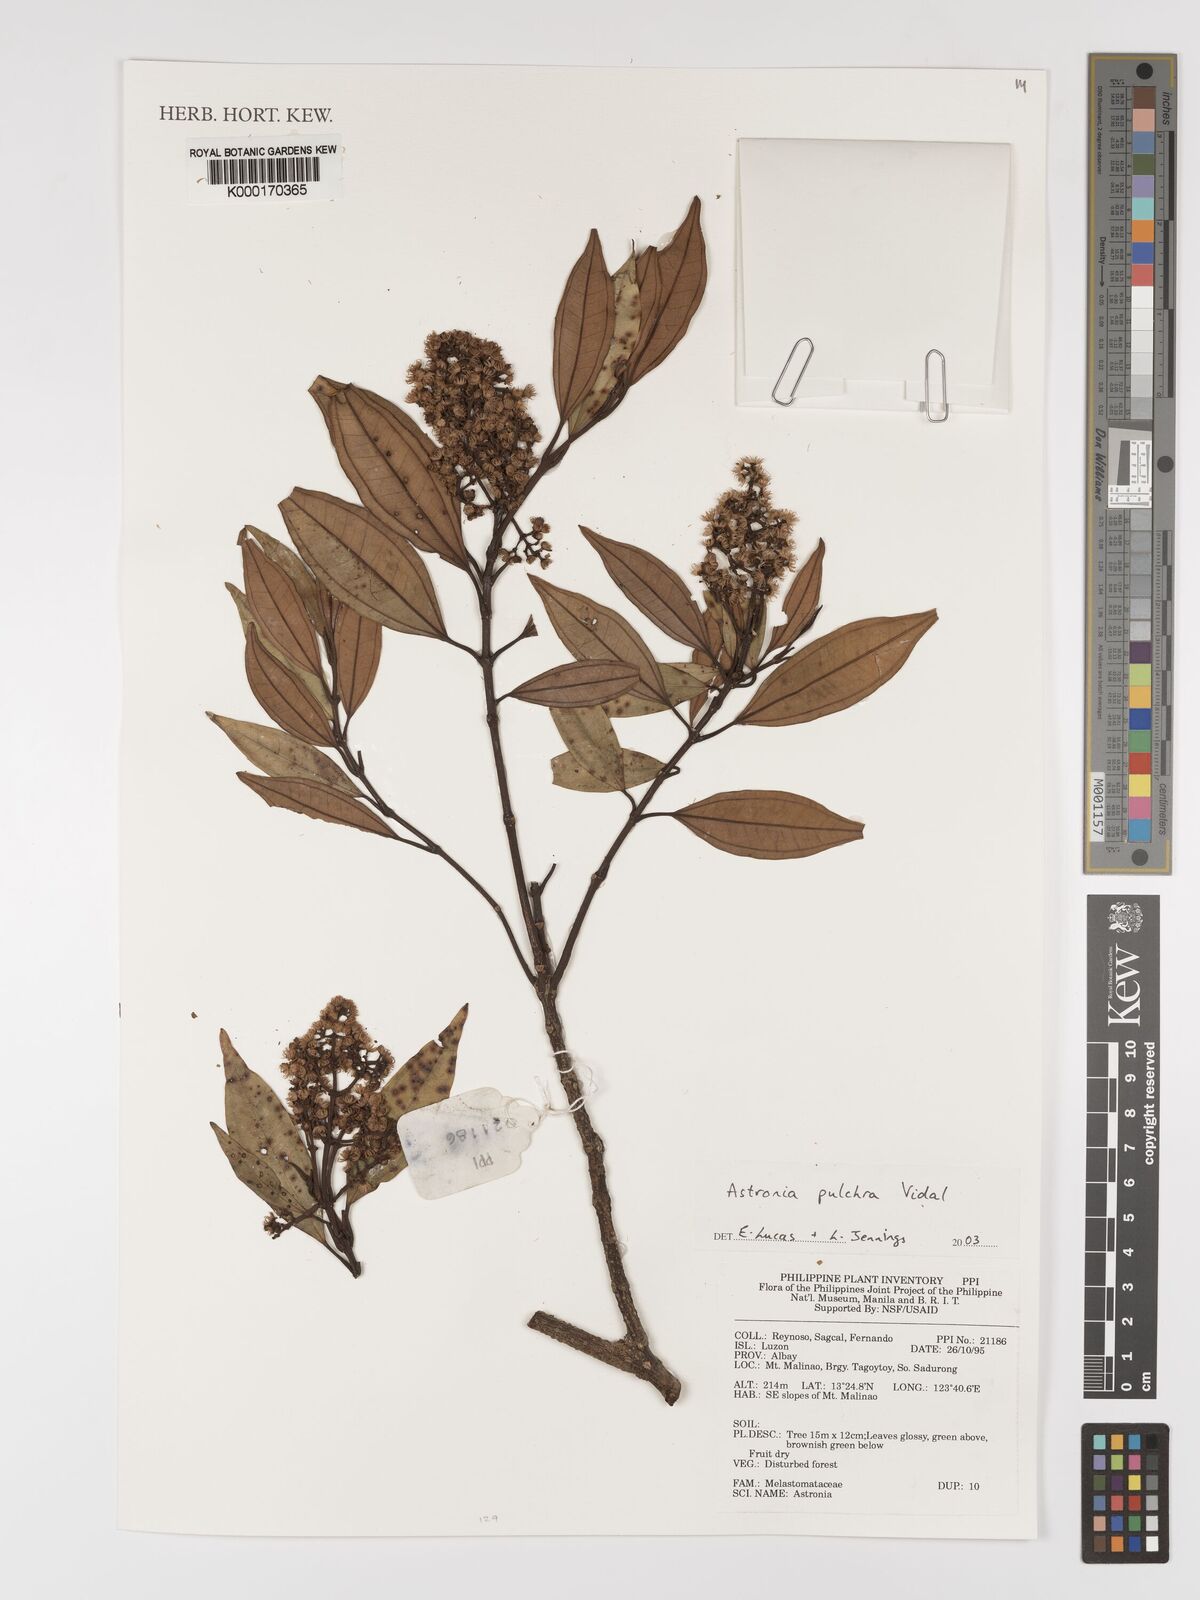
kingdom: Plantae
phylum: Tracheophyta
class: Magnoliopsida
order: Myrtales
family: Melastomataceae
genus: Astronia
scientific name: Astronia pulchra
